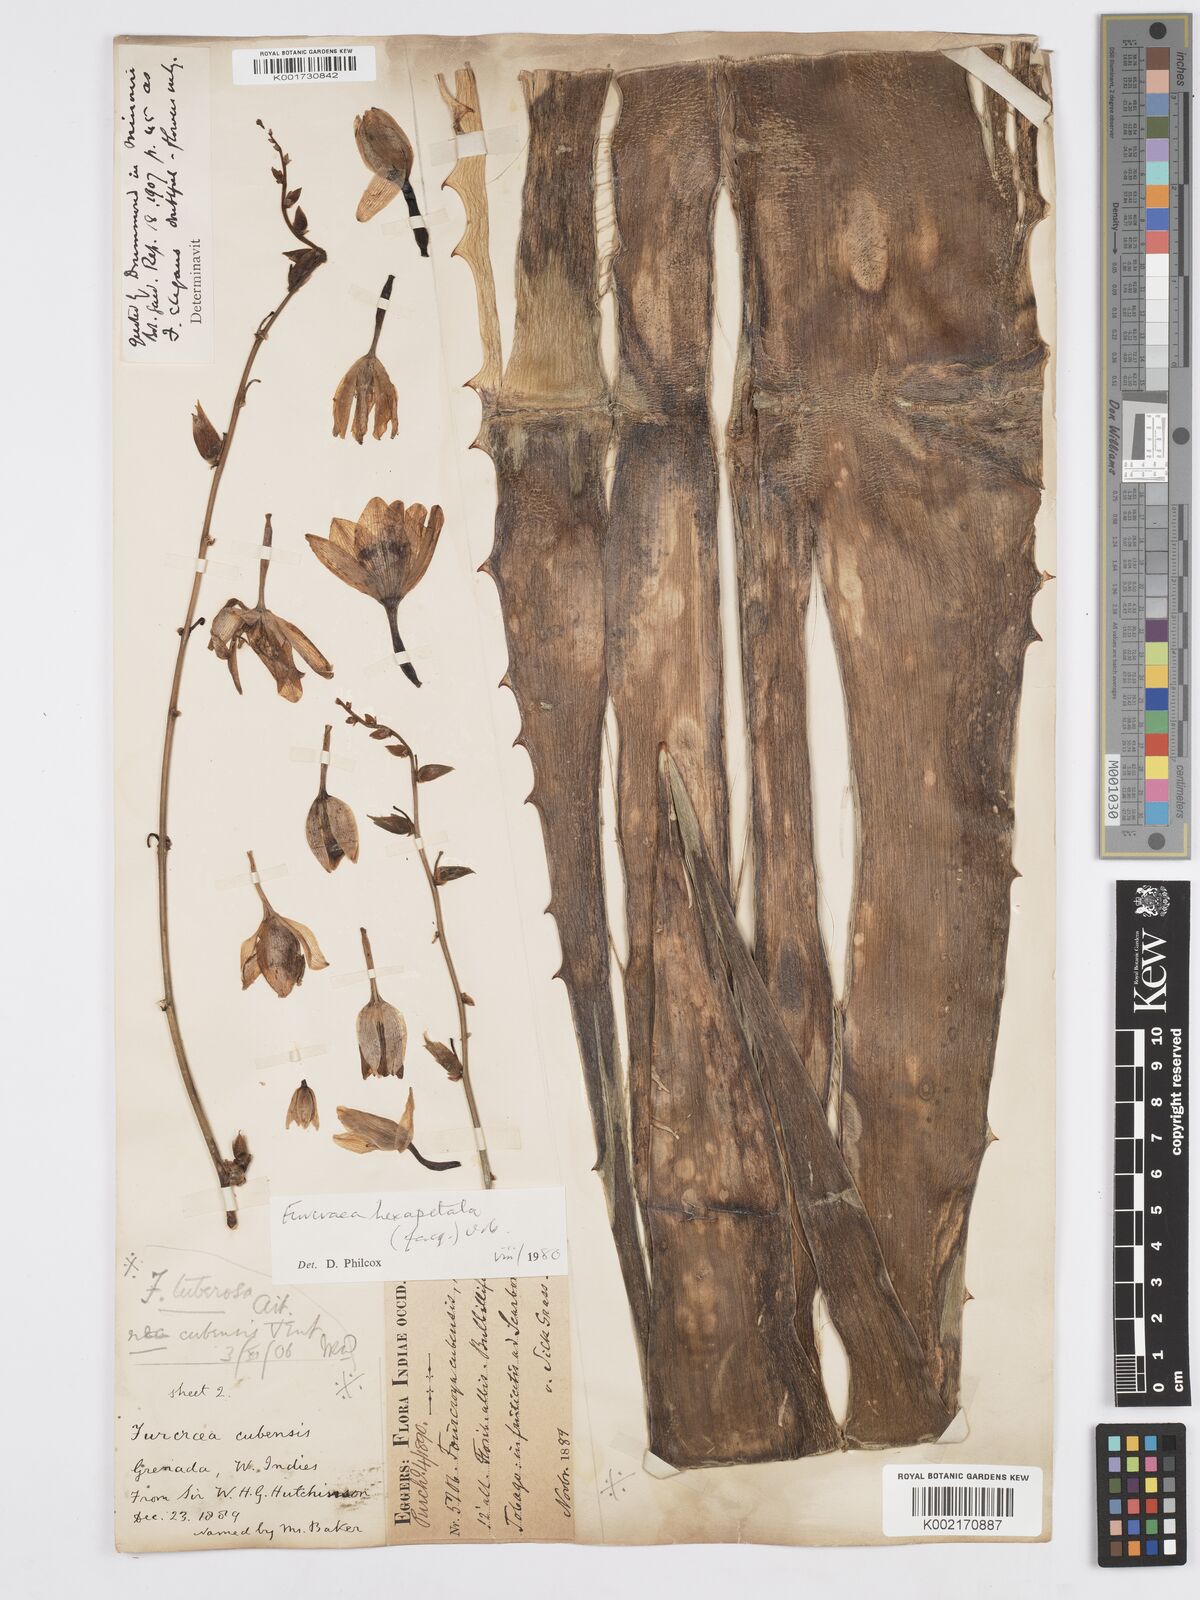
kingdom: Plantae
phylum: Tracheophyta
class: Liliopsida
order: Asparagales
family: Asparagaceae
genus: Furcraea
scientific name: Furcraea hexapetala
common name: Cuban-hemp
